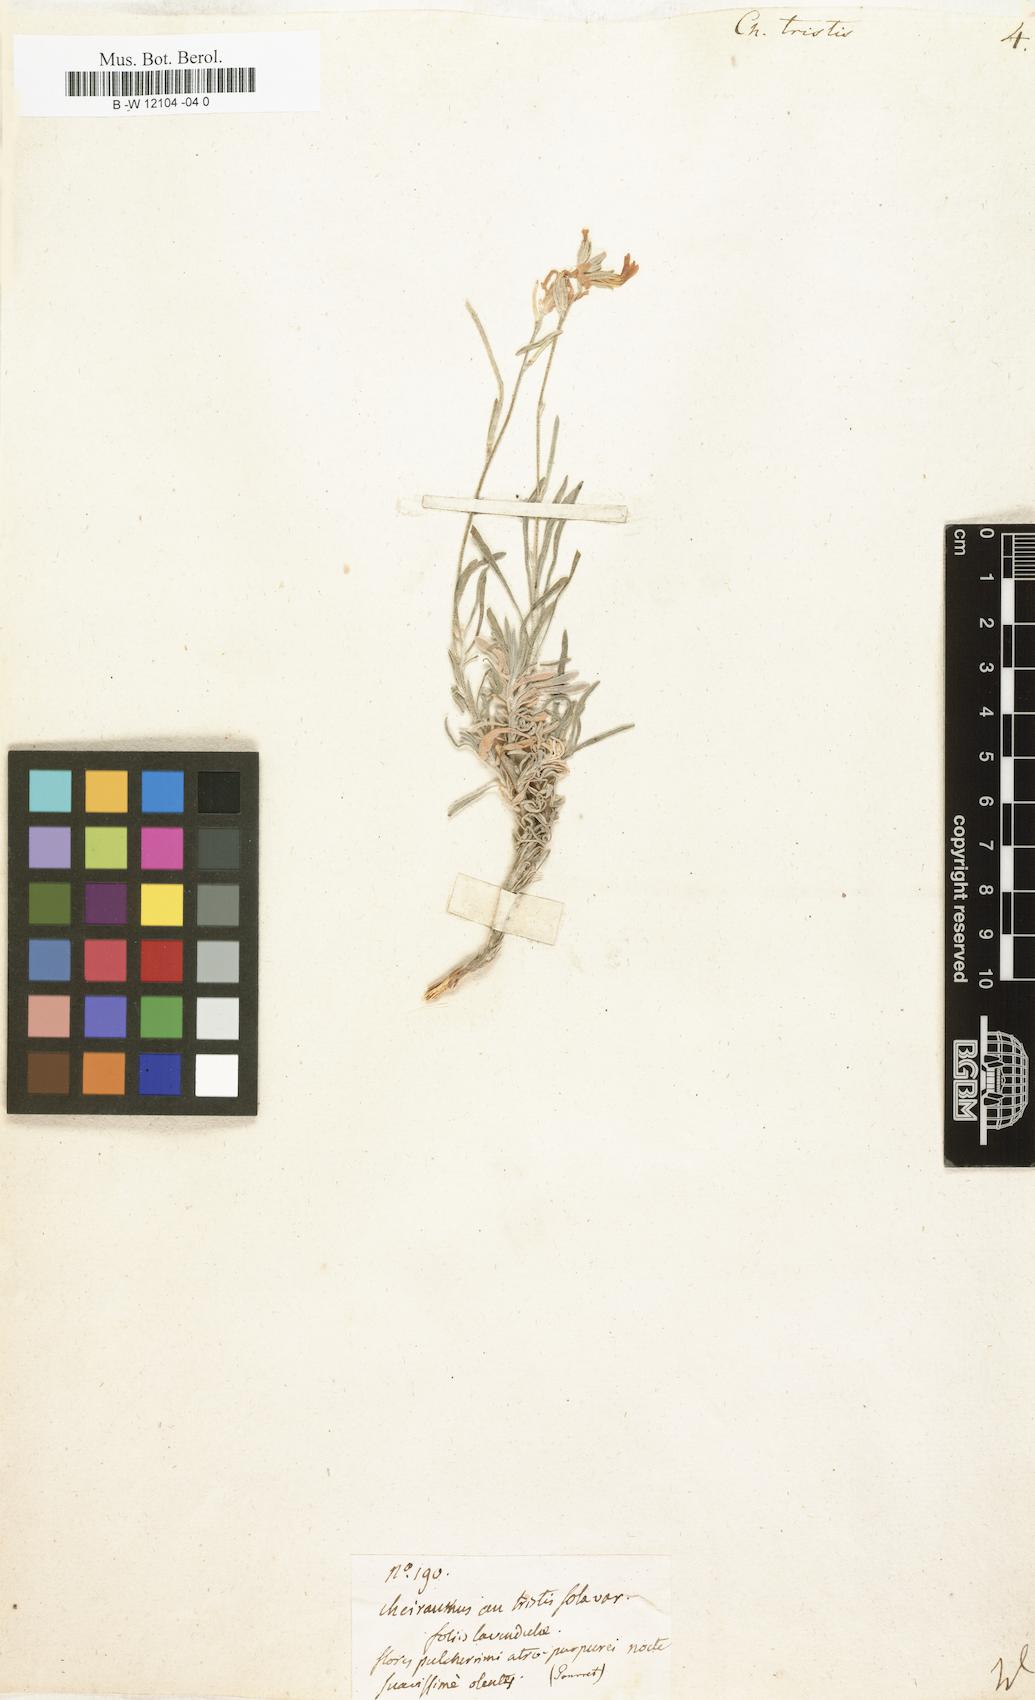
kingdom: Plantae
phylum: Tracheophyta
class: Magnoliopsida
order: Brassicales
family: Brassicaceae
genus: Matthiola
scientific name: Matthiola
